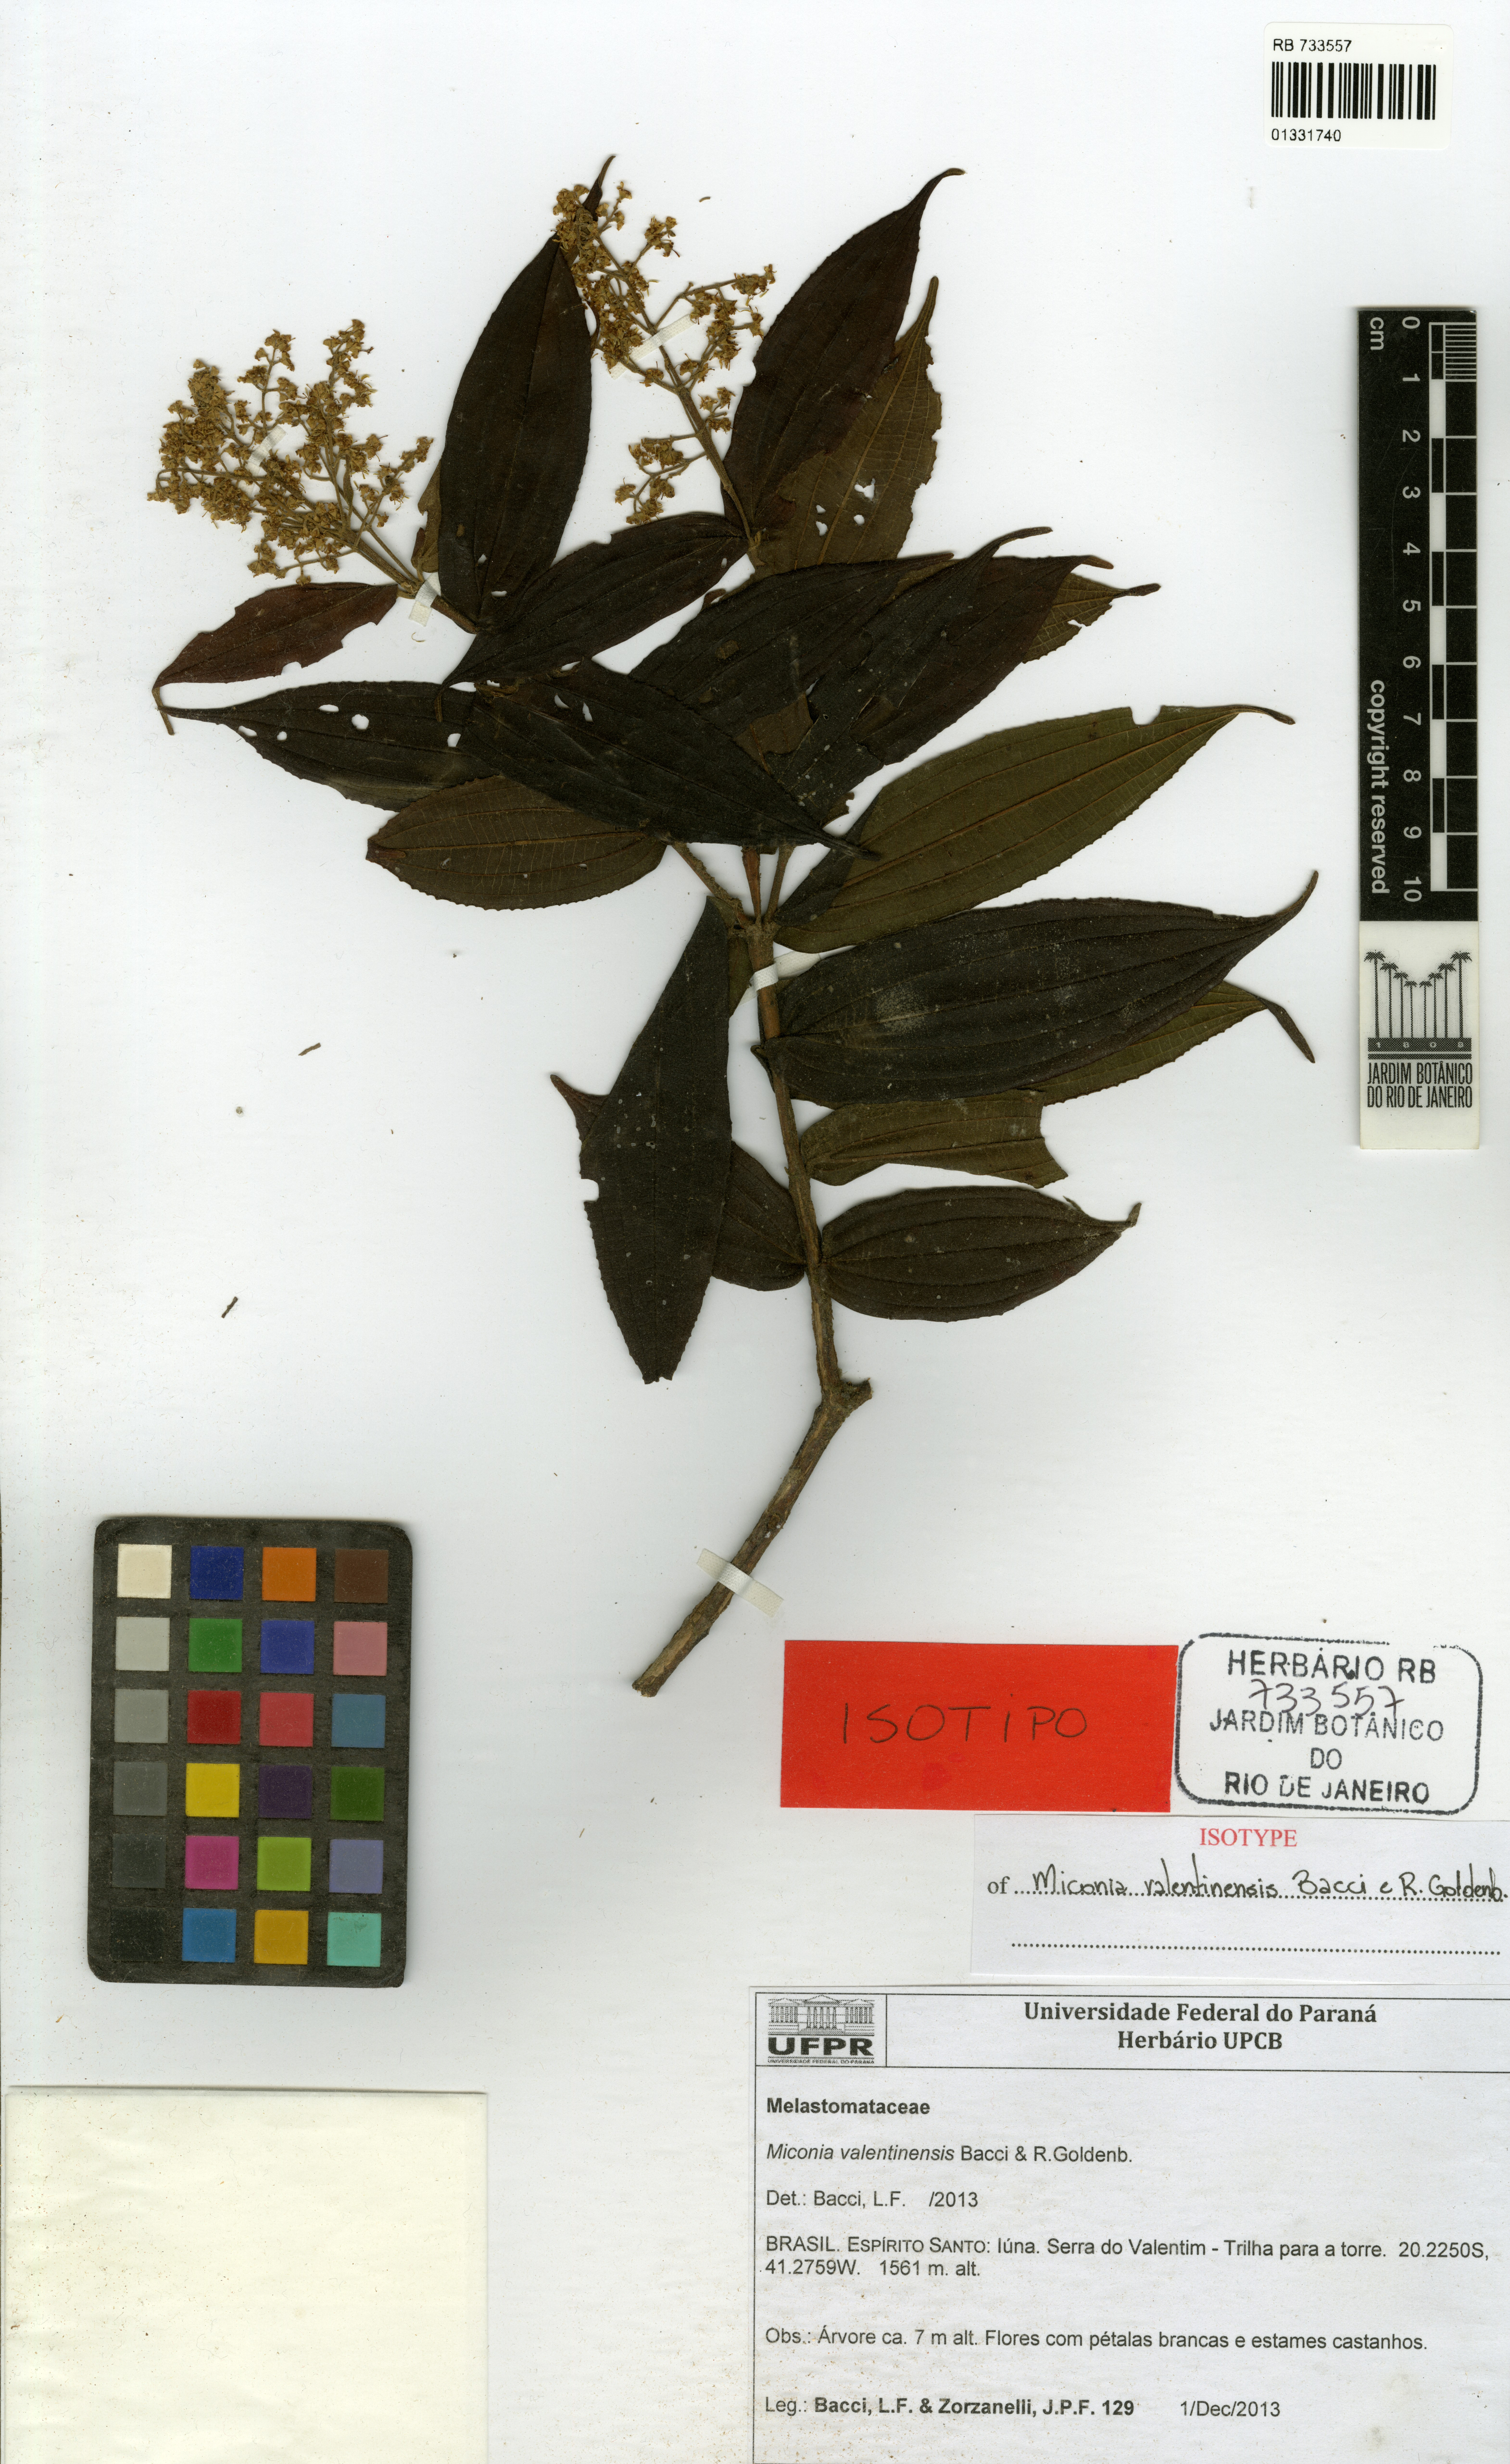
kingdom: Plantae
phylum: Tracheophyta
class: Magnoliopsida
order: Myrtales
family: Melastomataceae
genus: Miconia
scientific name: Miconia valentinensis
